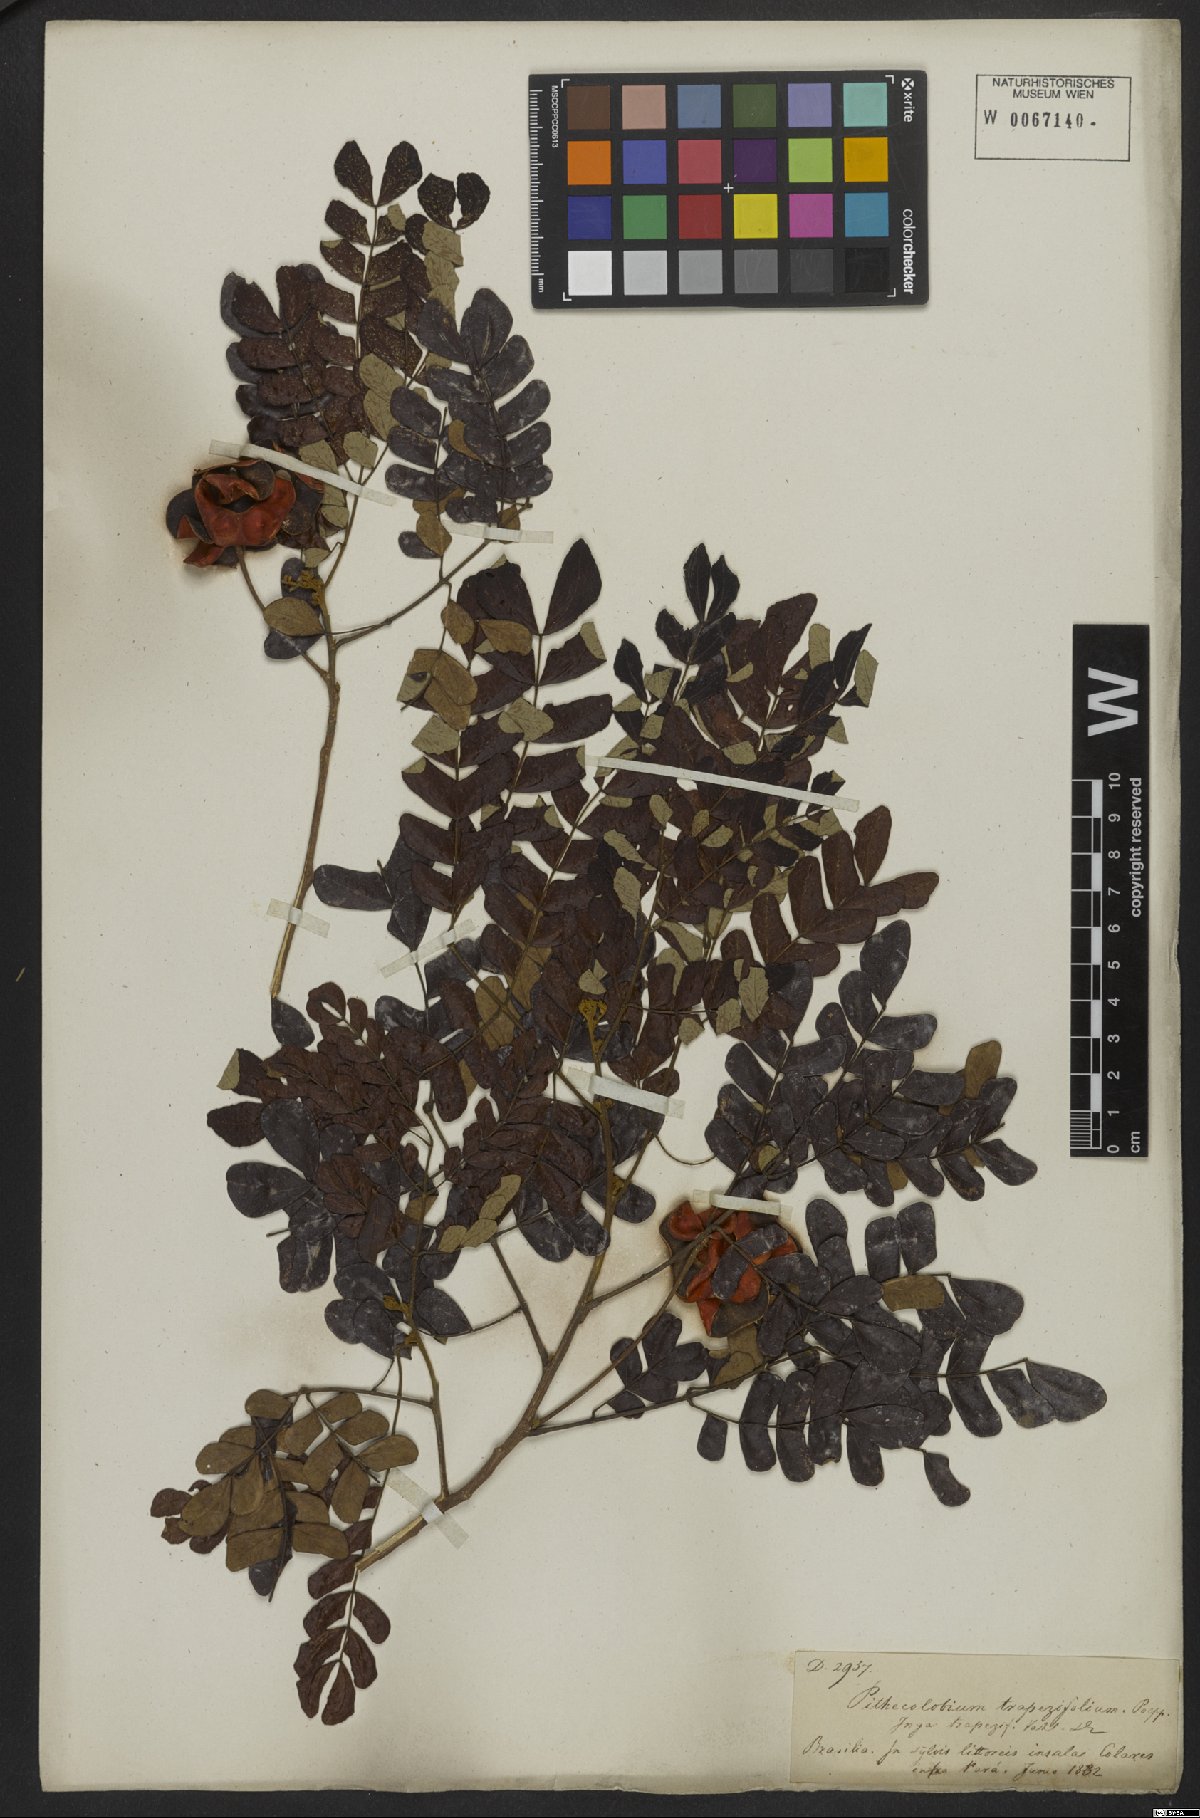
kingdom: Plantae
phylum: Tracheophyta
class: Magnoliopsida
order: Fabales
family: Fabaceae
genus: Jupunba
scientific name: Jupunba trapezifolia
